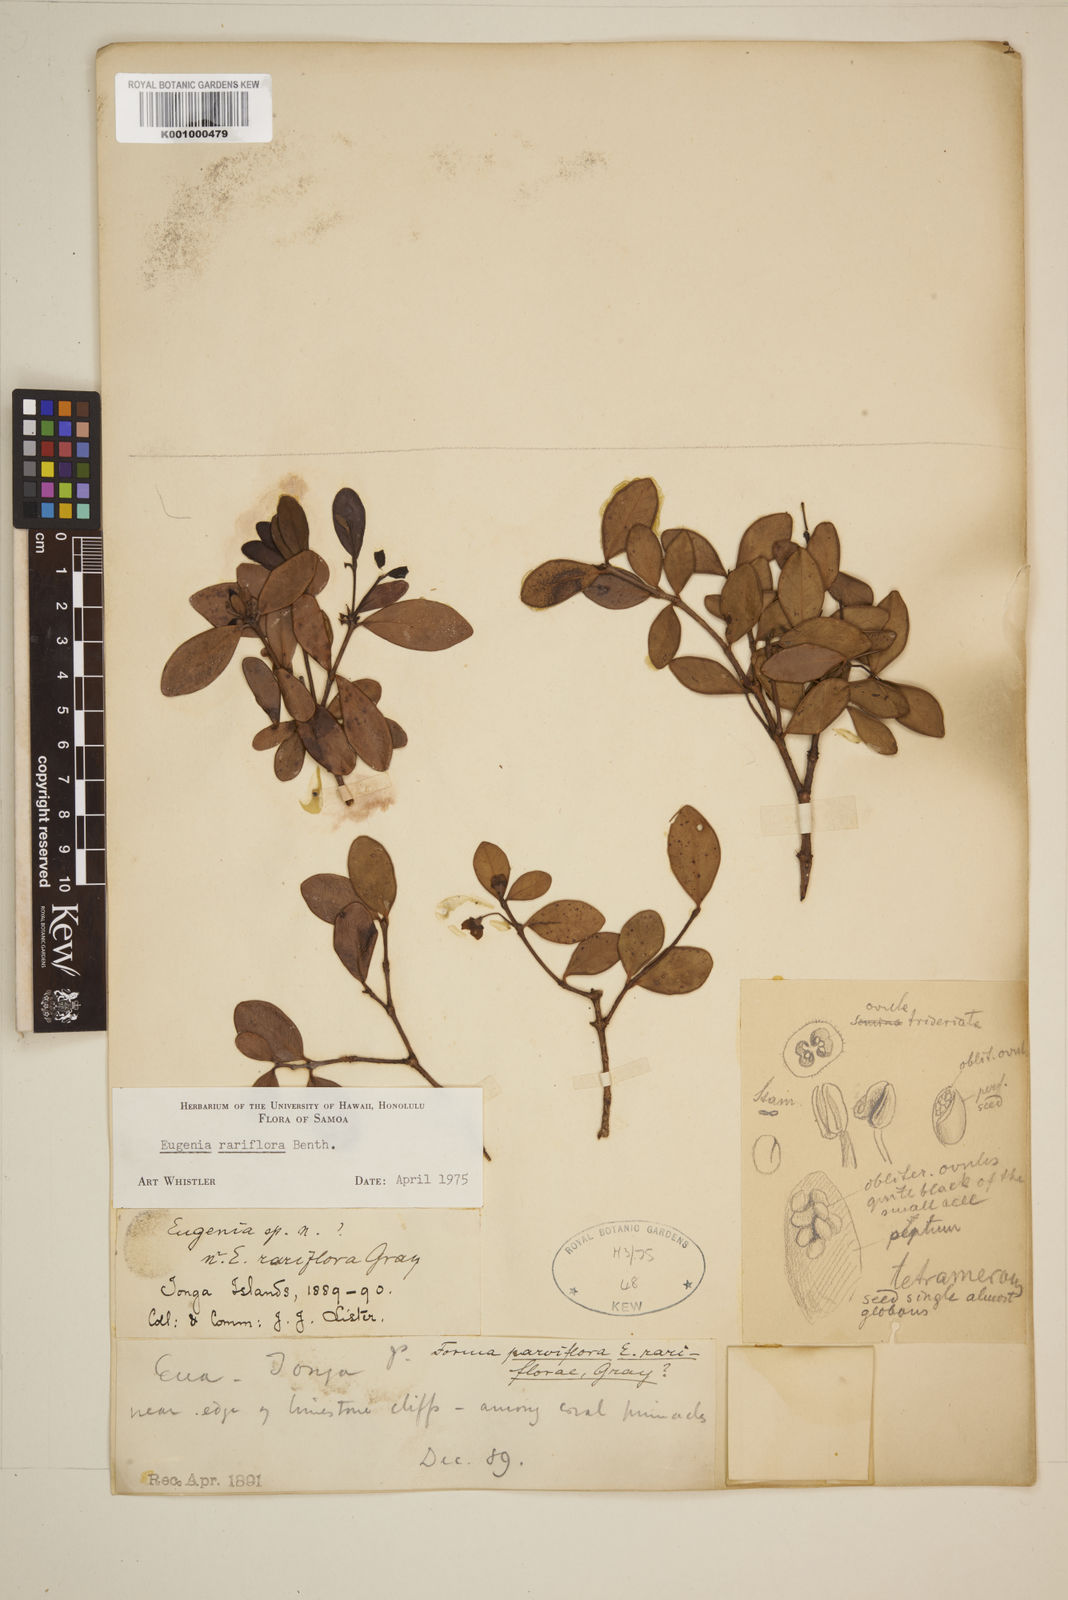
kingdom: Plantae
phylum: Tracheophyta
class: Magnoliopsida
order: Myrtales
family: Myrtaceae
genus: Eugenia
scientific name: Eugenia reinwardtiana
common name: Cedar bay-cherry
